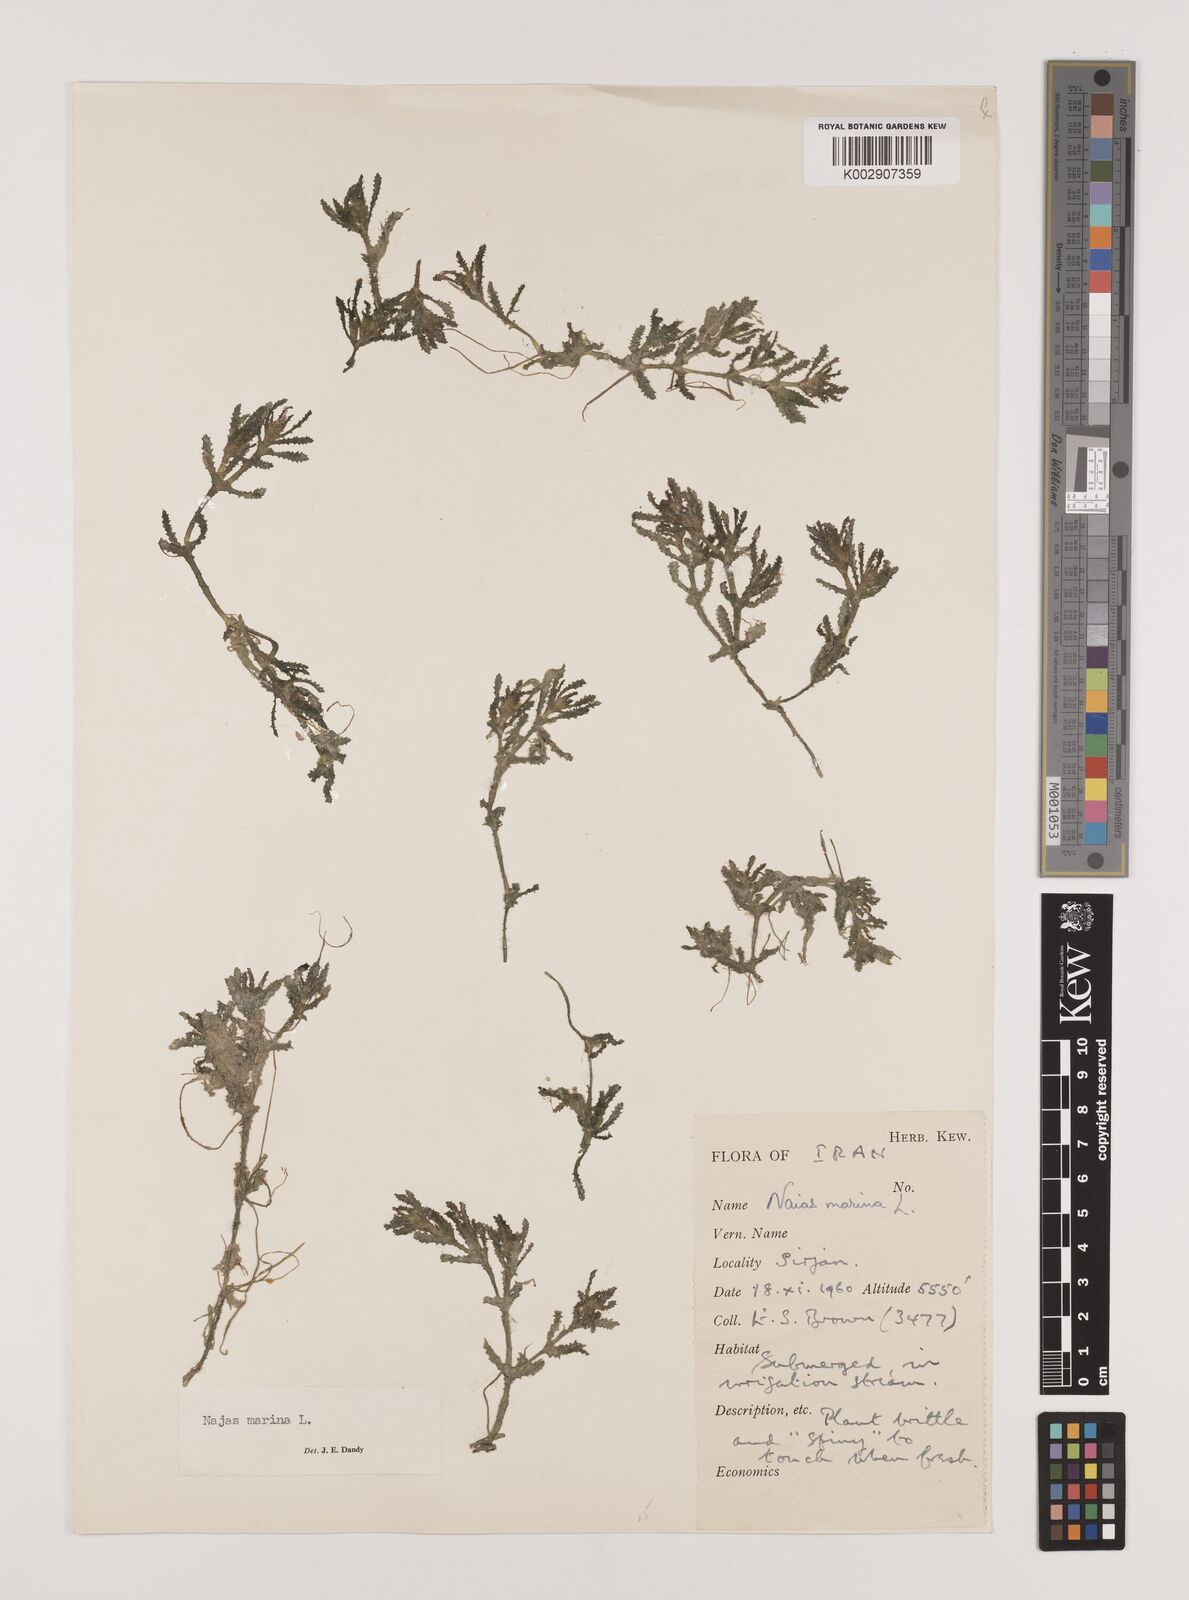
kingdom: Plantae
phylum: Tracheophyta
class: Liliopsida
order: Alismatales
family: Hydrocharitaceae
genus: Najas
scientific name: Najas marina
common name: Holly-leaved naiad
